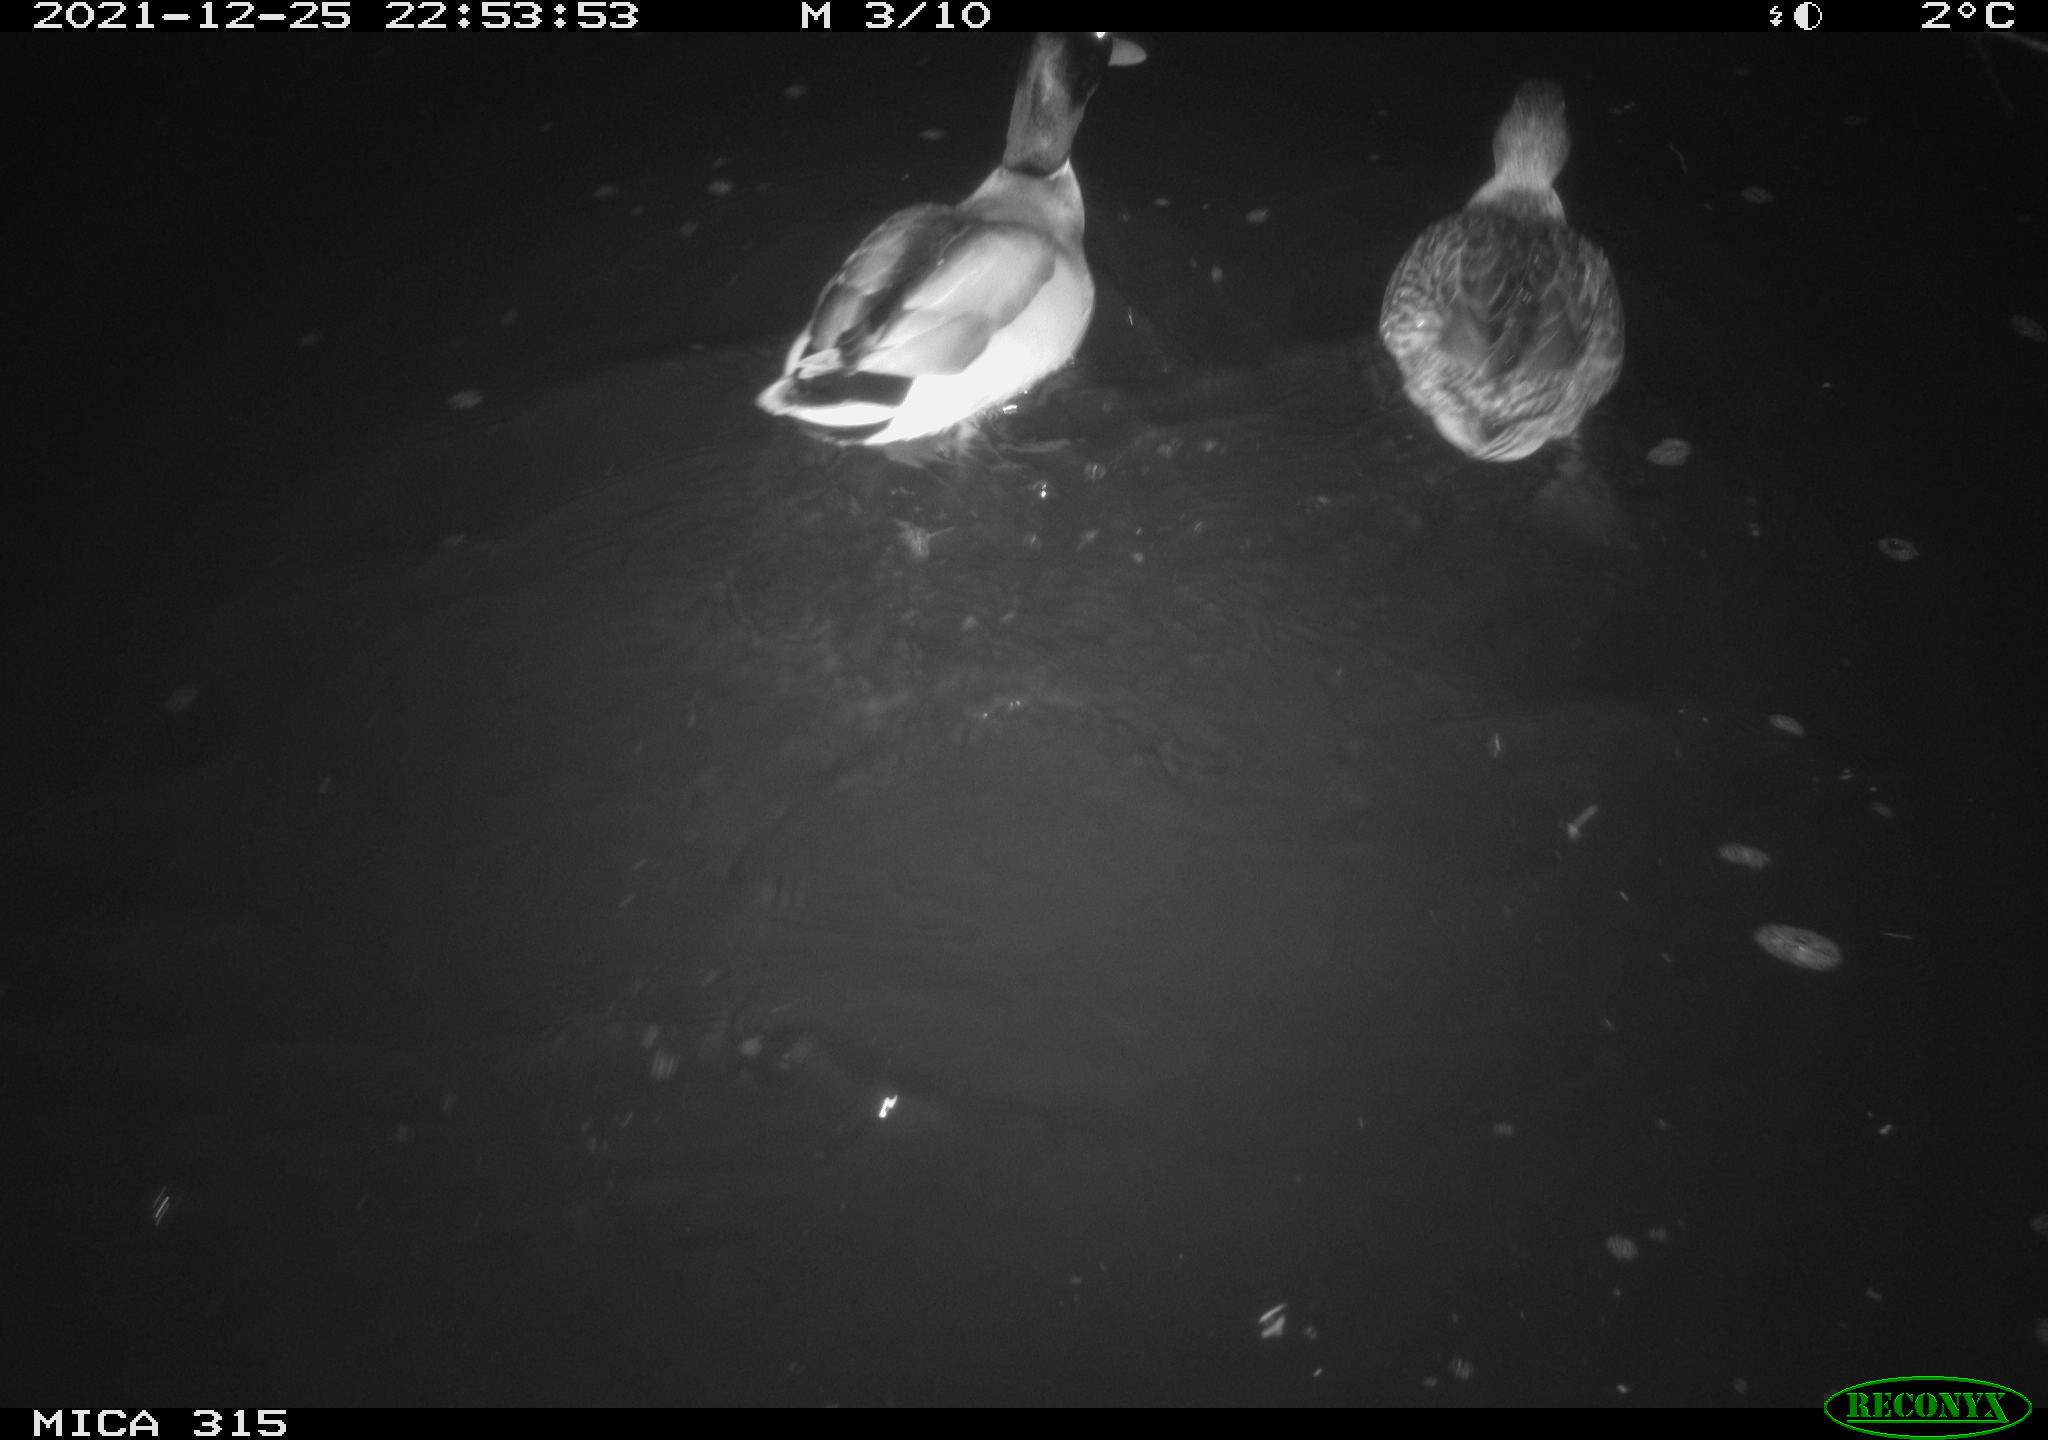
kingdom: Animalia
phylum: Chordata
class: Aves
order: Anseriformes
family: Anatidae
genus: Anas
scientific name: Anas
